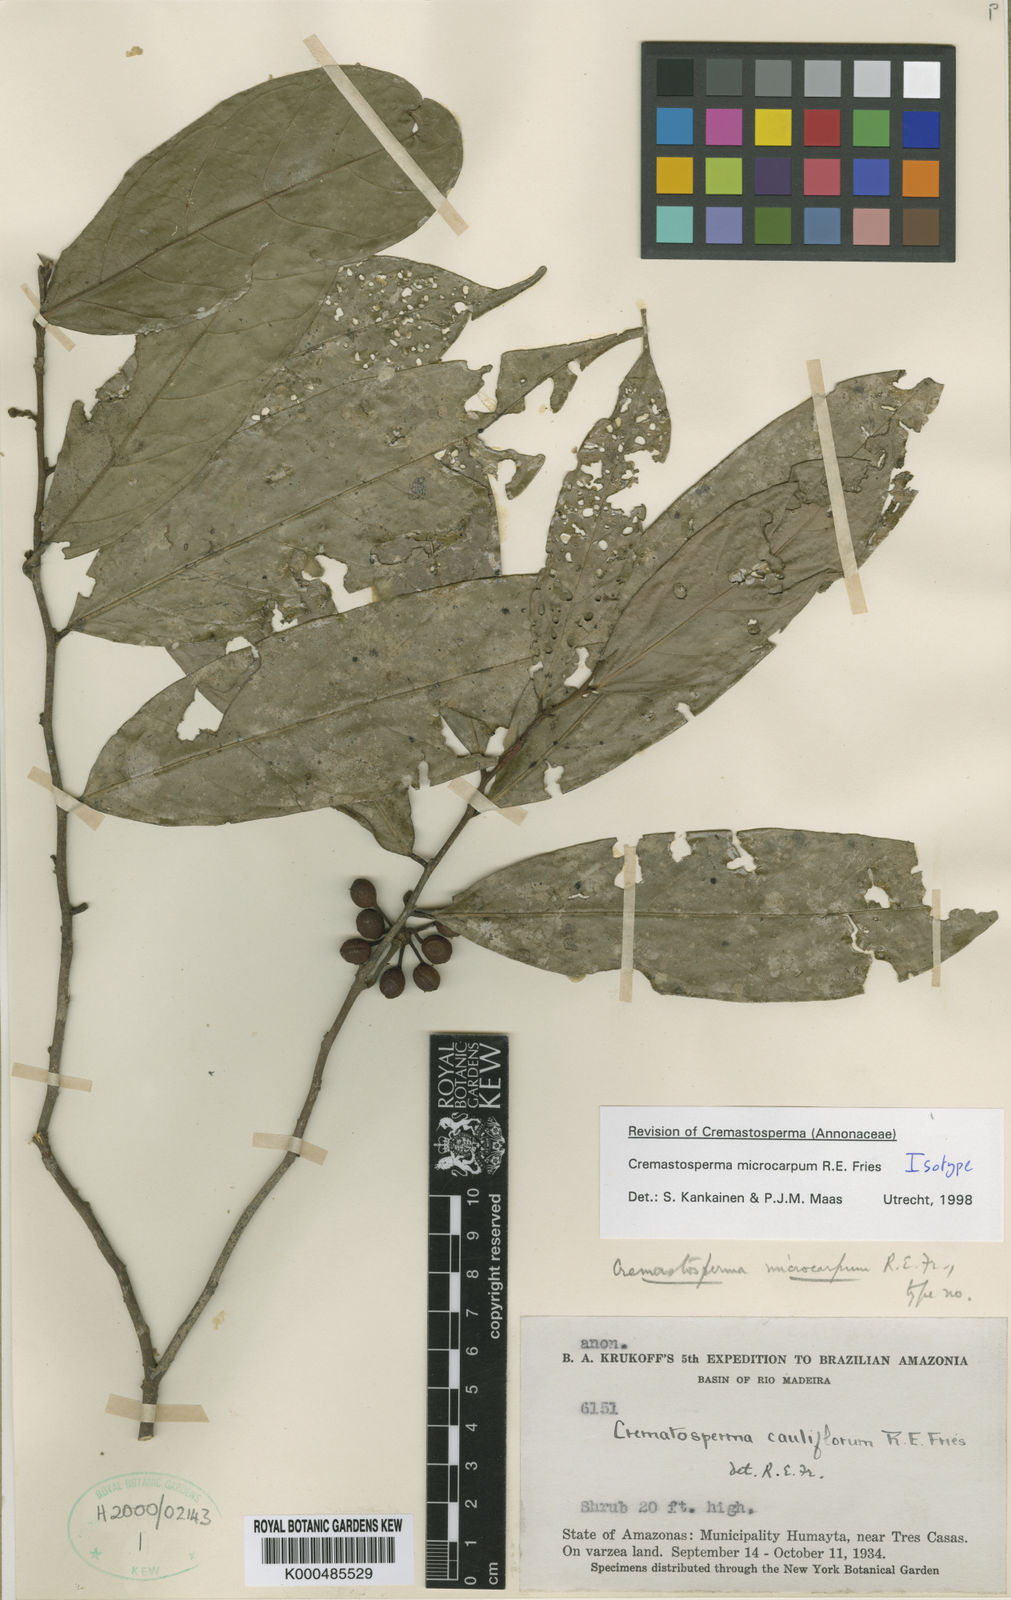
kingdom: Plantae
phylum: Tracheophyta
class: Magnoliopsida
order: Magnoliales
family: Annonaceae
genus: Cremastosperma
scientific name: Cremastosperma microcarpum
